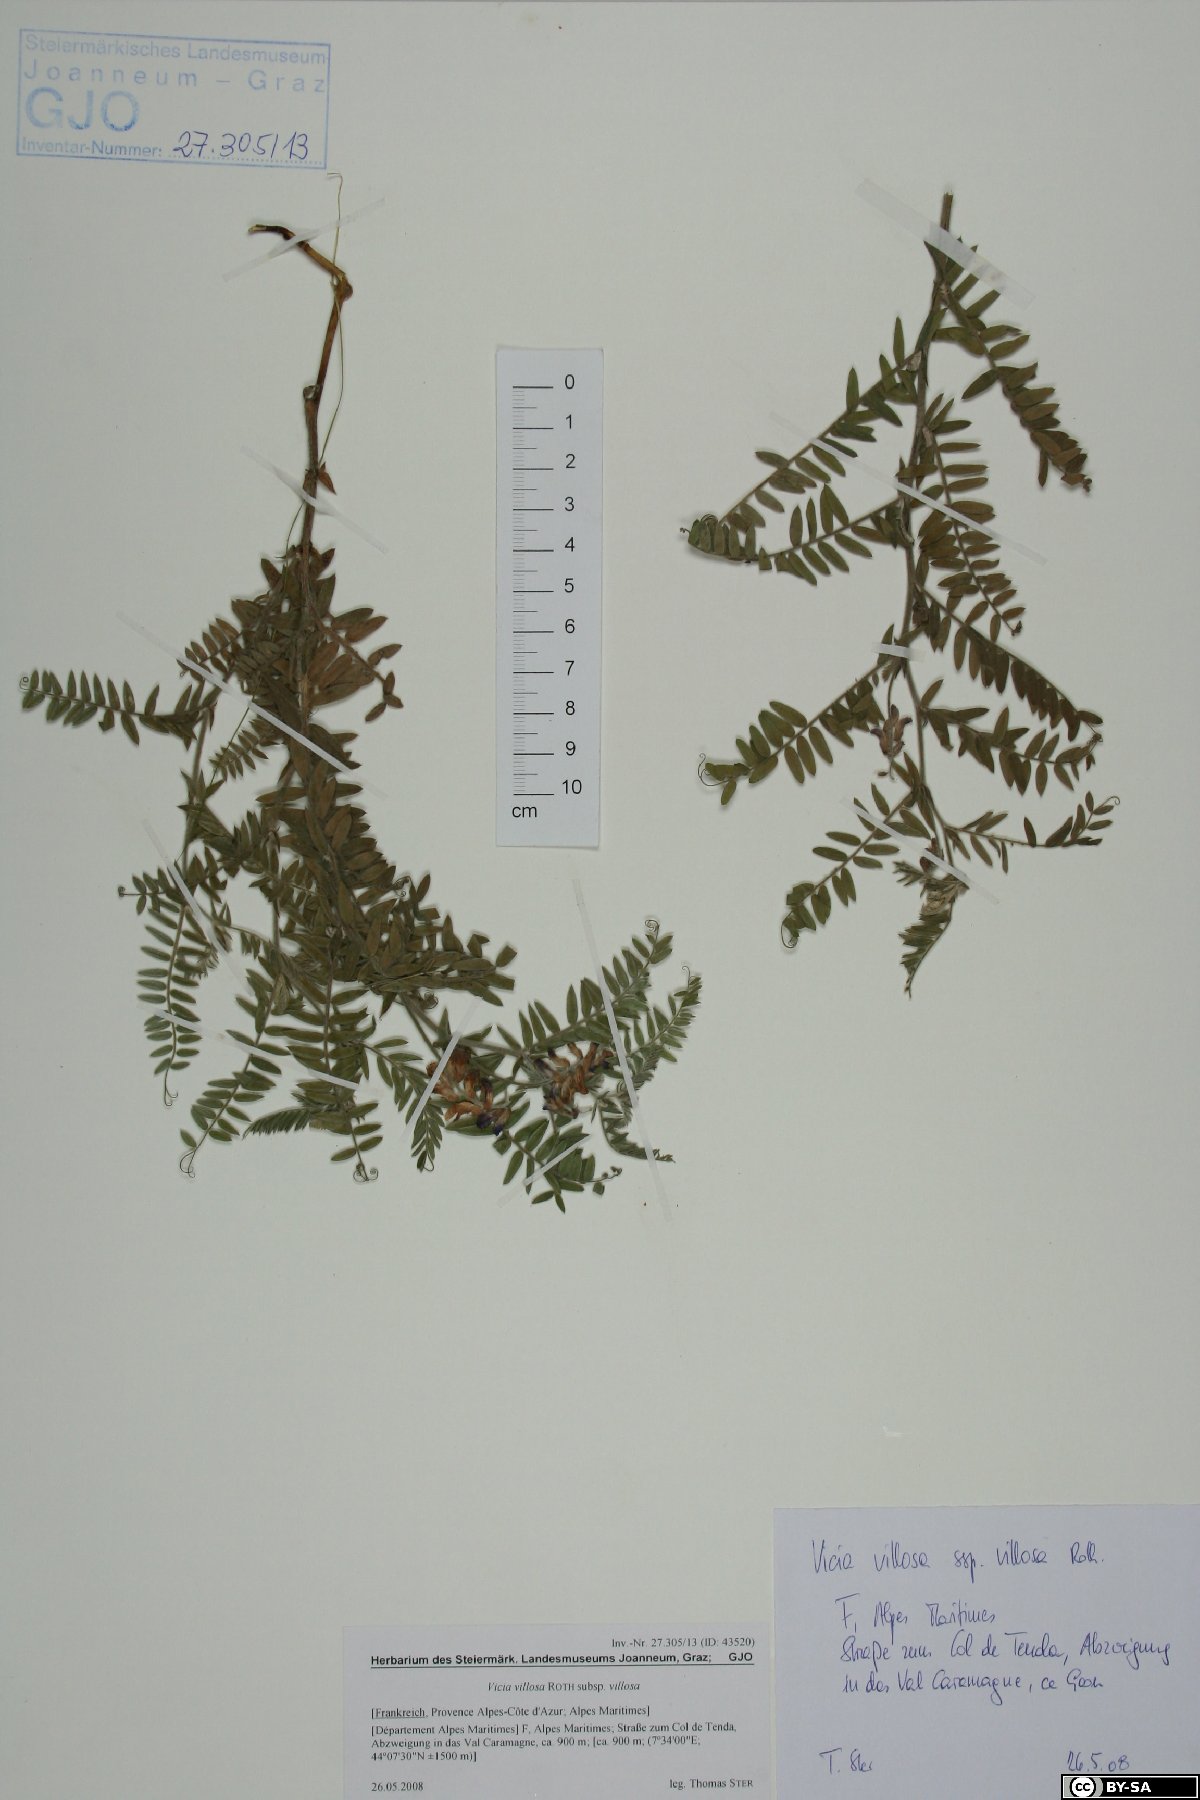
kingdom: Plantae
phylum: Tracheophyta
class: Magnoliopsida
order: Fabales
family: Fabaceae
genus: Vicia
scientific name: Vicia villosa
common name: Fodder vetch
